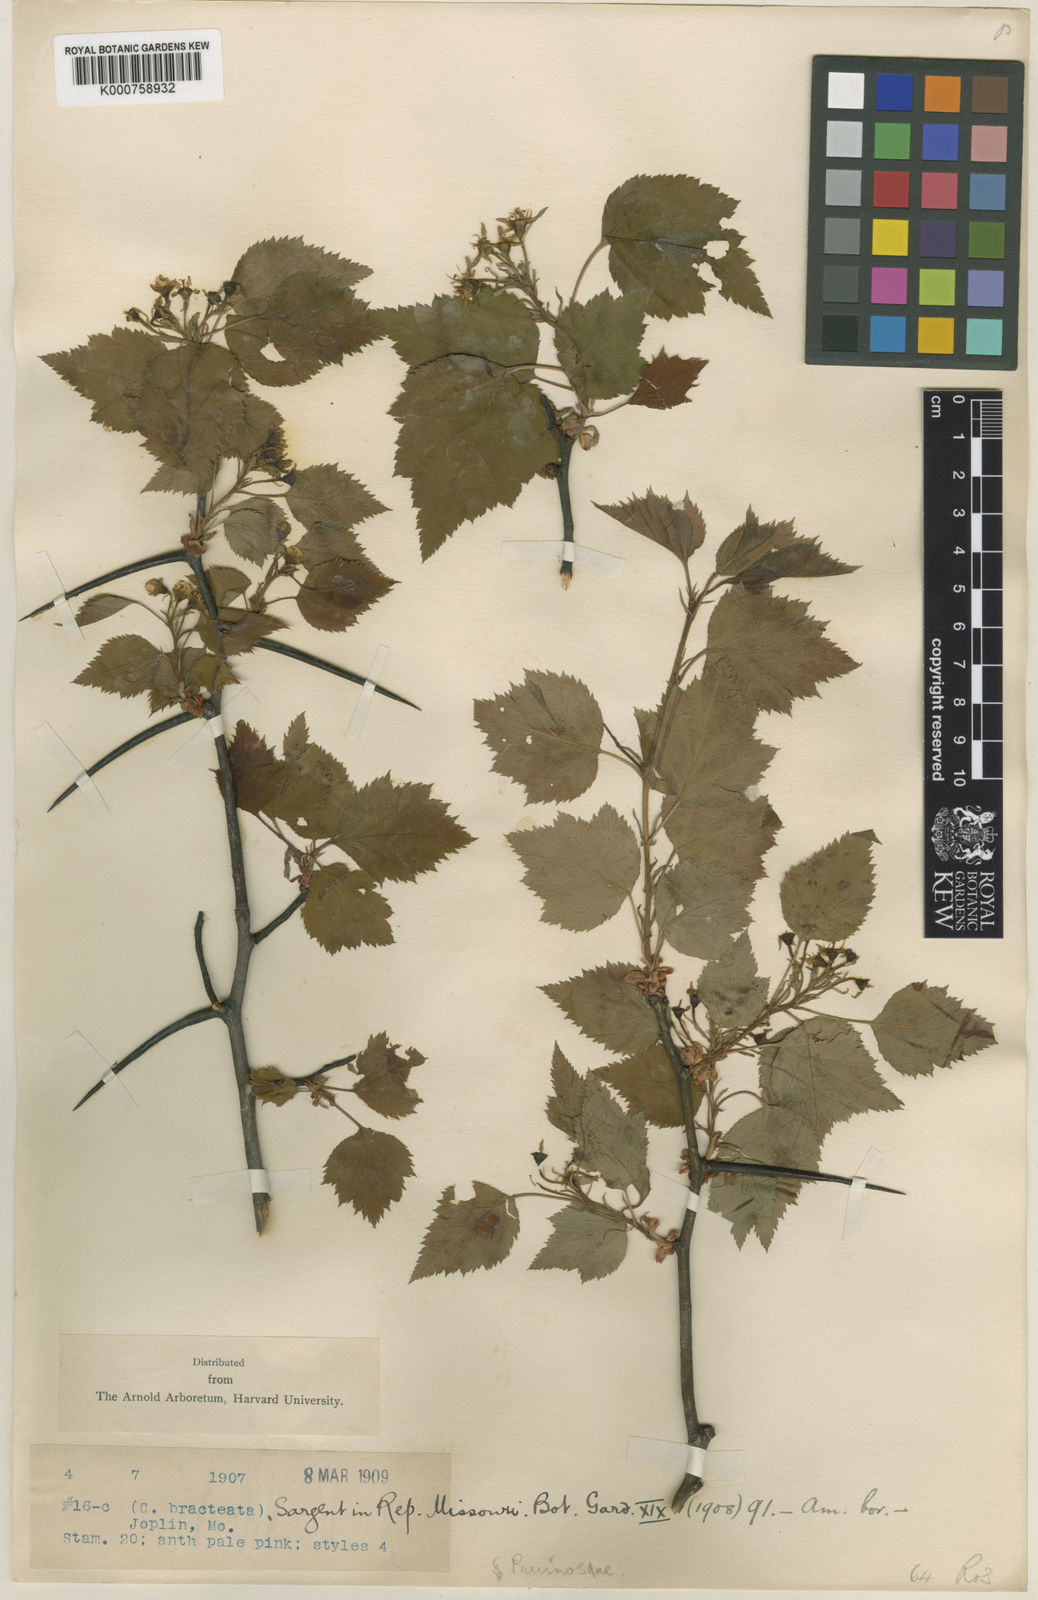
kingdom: Plantae
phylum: Tracheophyta
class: Magnoliopsida
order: Rosales
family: Rosaceae
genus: Crataegus
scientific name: Crataegus
